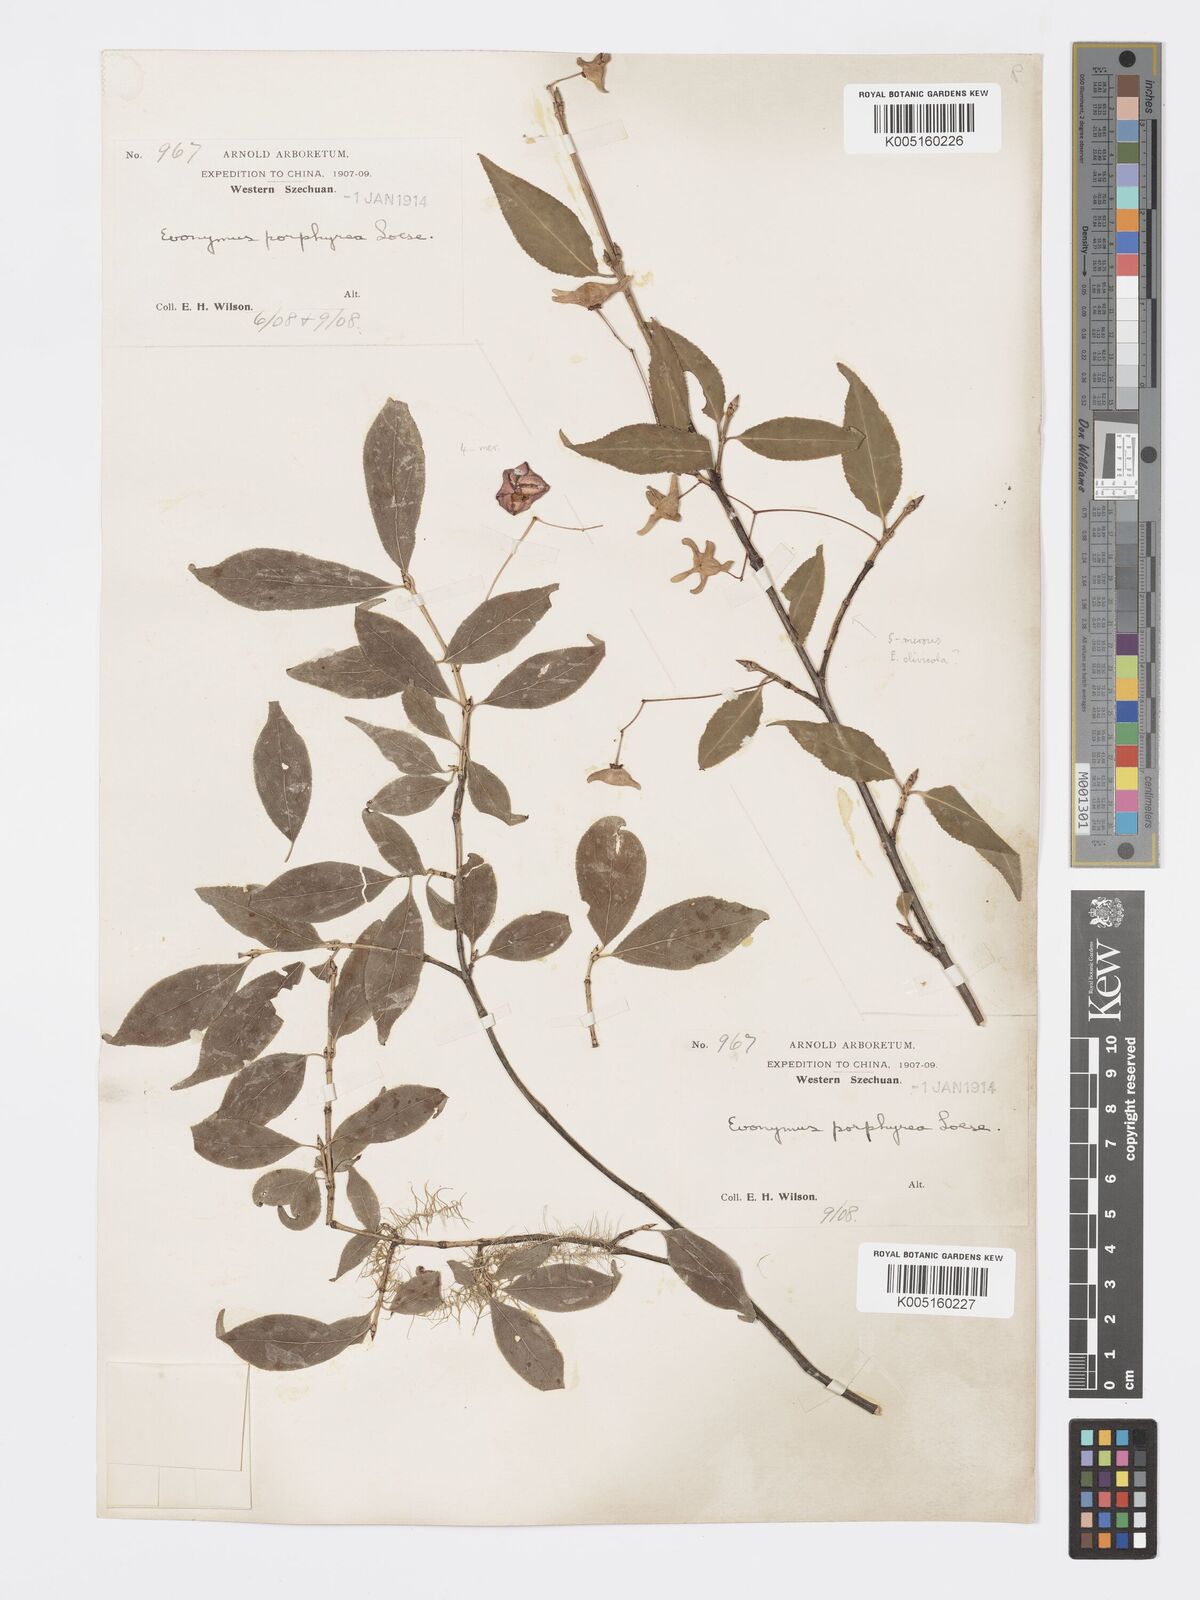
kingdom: Plantae
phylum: Tracheophyta
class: Magnoliopsida
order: Celastrales
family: Celastraceae
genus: Euonymus
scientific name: Euonymus giraldii
